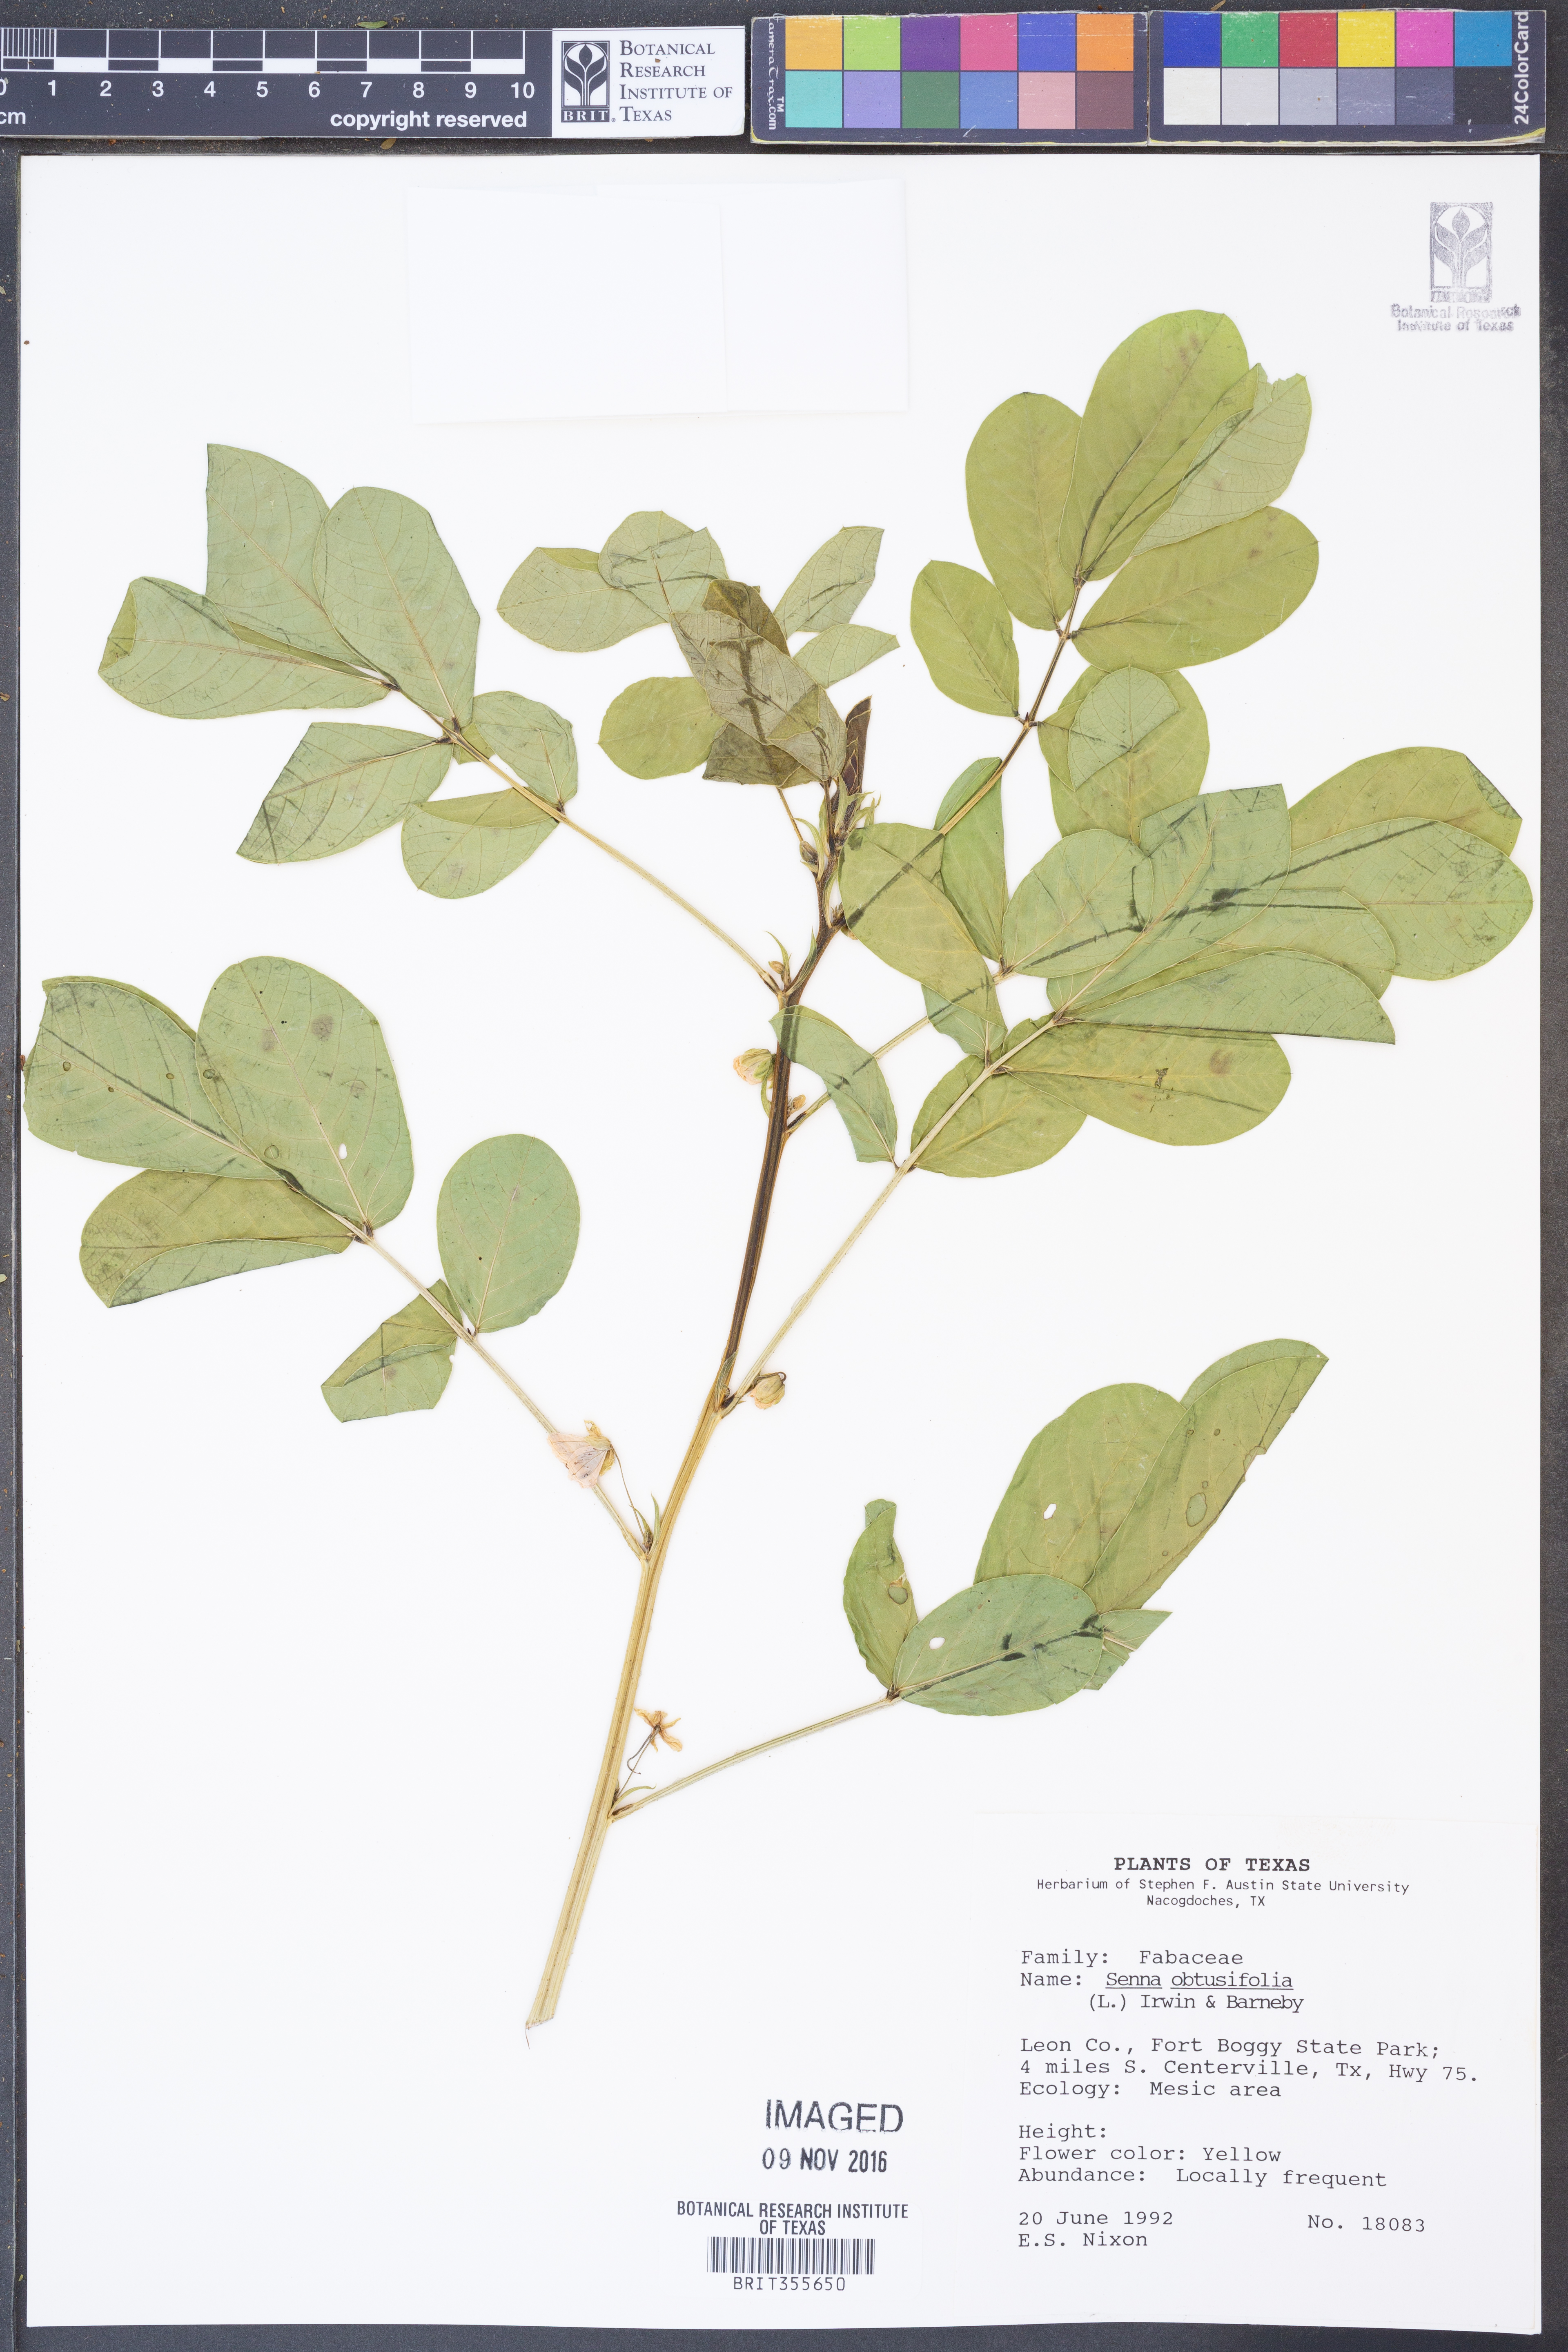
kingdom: Plantae
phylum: Tracheophyta
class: Magnoliopsida
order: Fabales
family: Fabaceae
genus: Senna
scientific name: Senna obtusifolia
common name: Java-bean
